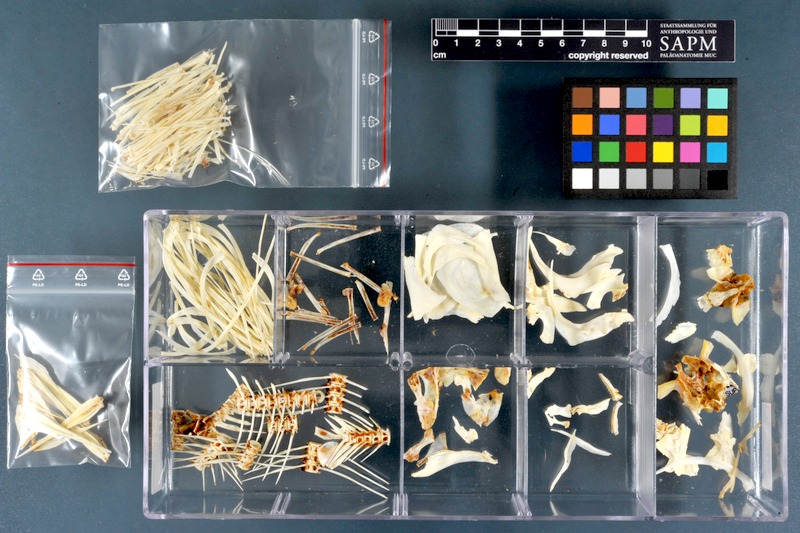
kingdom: Animalia
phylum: Chordata
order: Characiformes
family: Citharinidae
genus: Citharinus
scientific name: Citharinus citharus
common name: Moon fish
